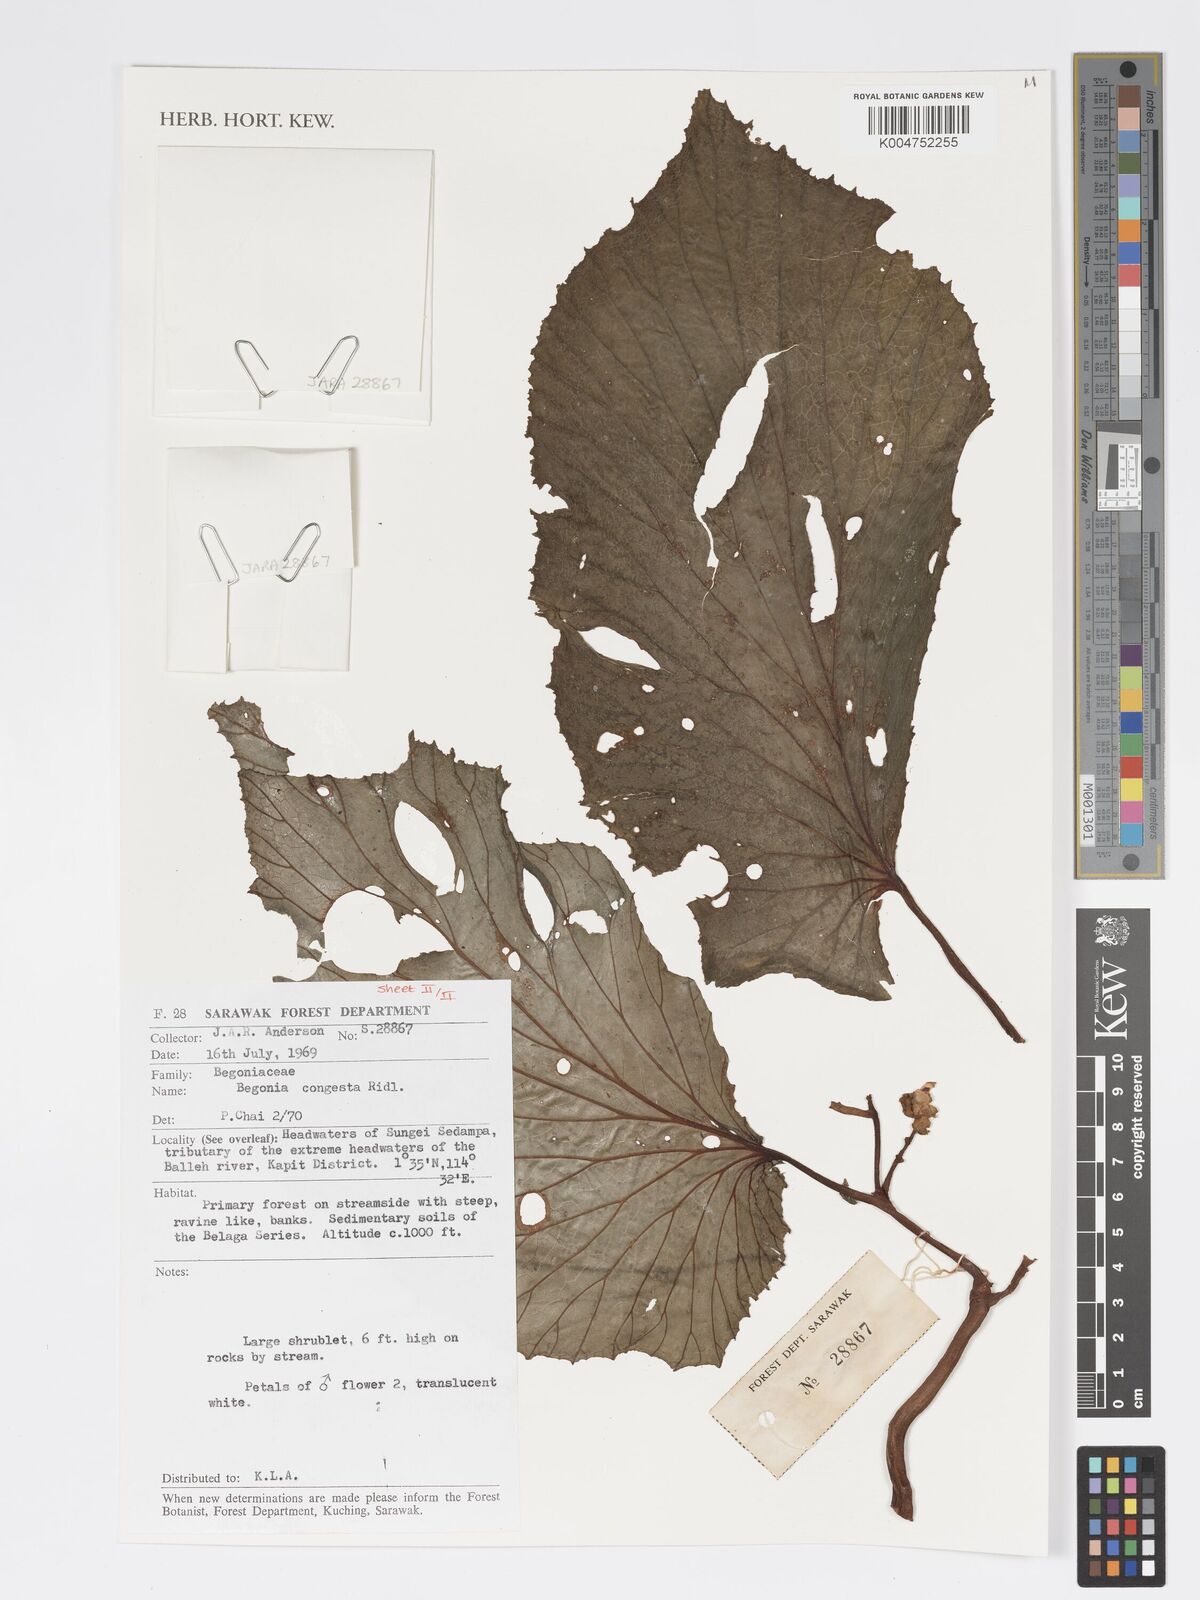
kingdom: Plantae
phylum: Tracheophyta
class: Magnoliopsida
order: Cucurbitales
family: Begoniaceae
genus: Begonia
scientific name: Begonia congesta
